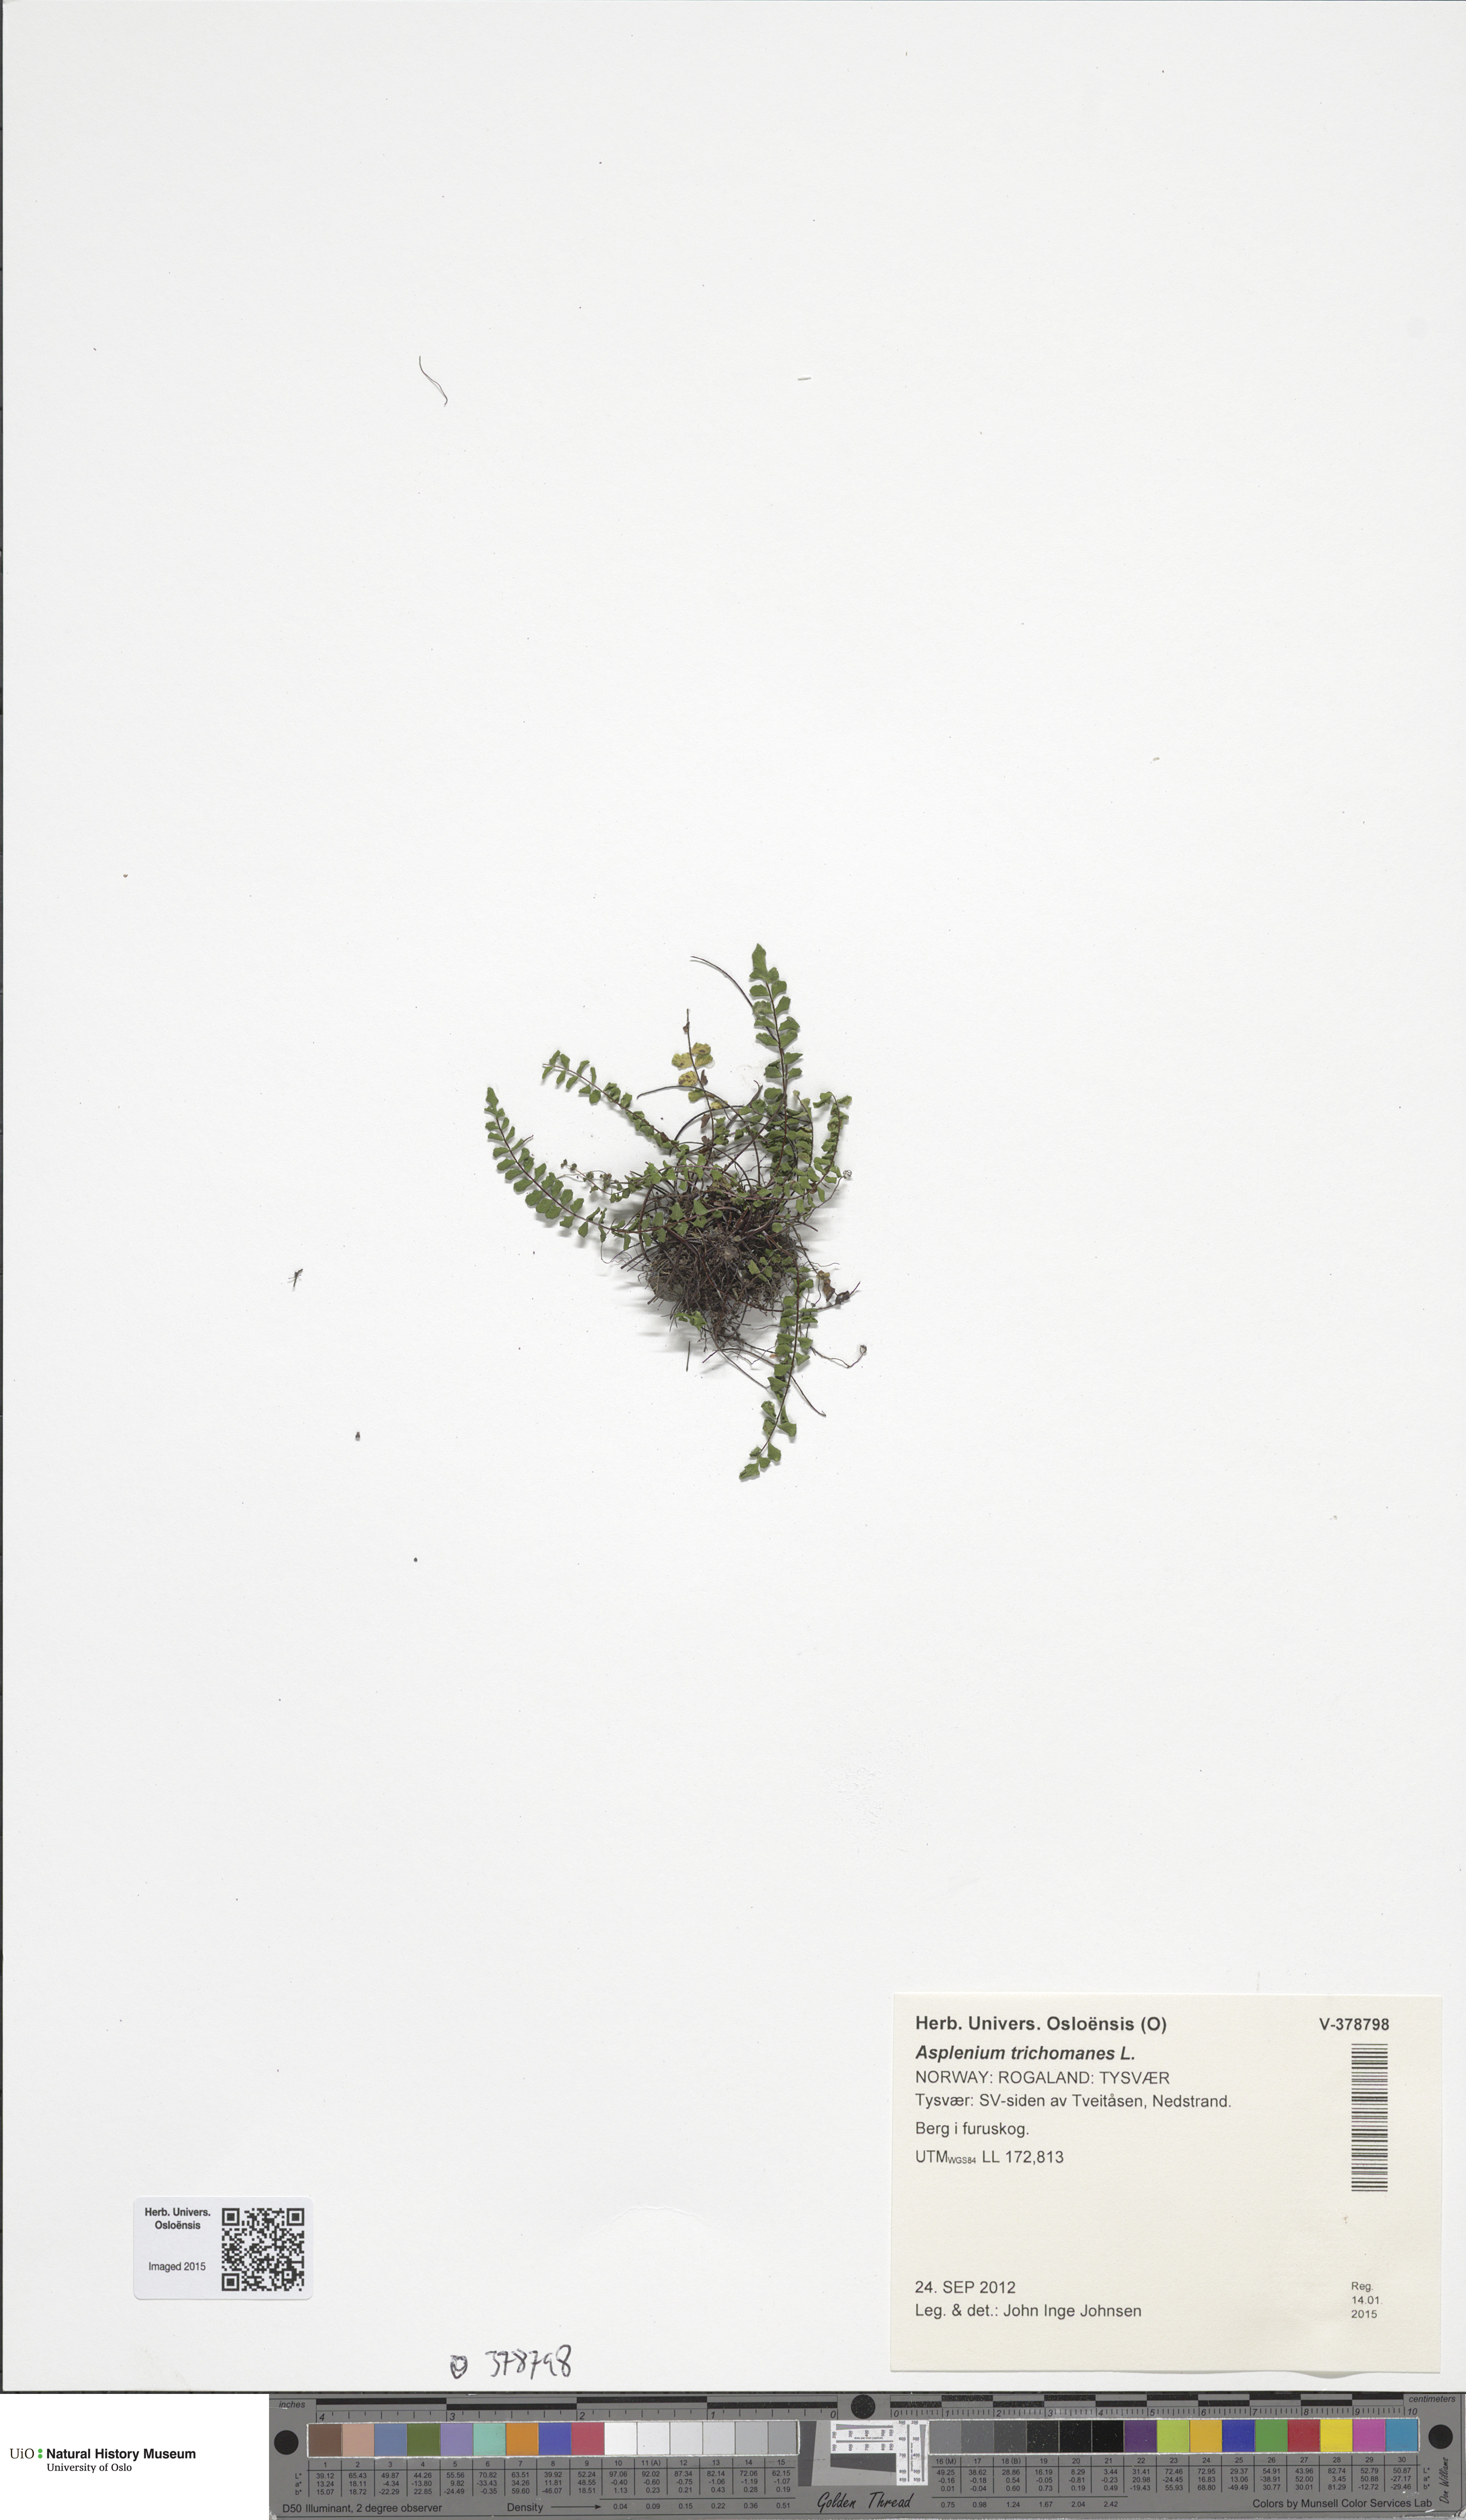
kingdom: Plantae
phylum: Tracheophyta
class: Polypodiopsida
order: Polypodiales
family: Aspleniaceae
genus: Asplenium
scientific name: Asplenium trichomanes
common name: Maidenhair spleenwort
